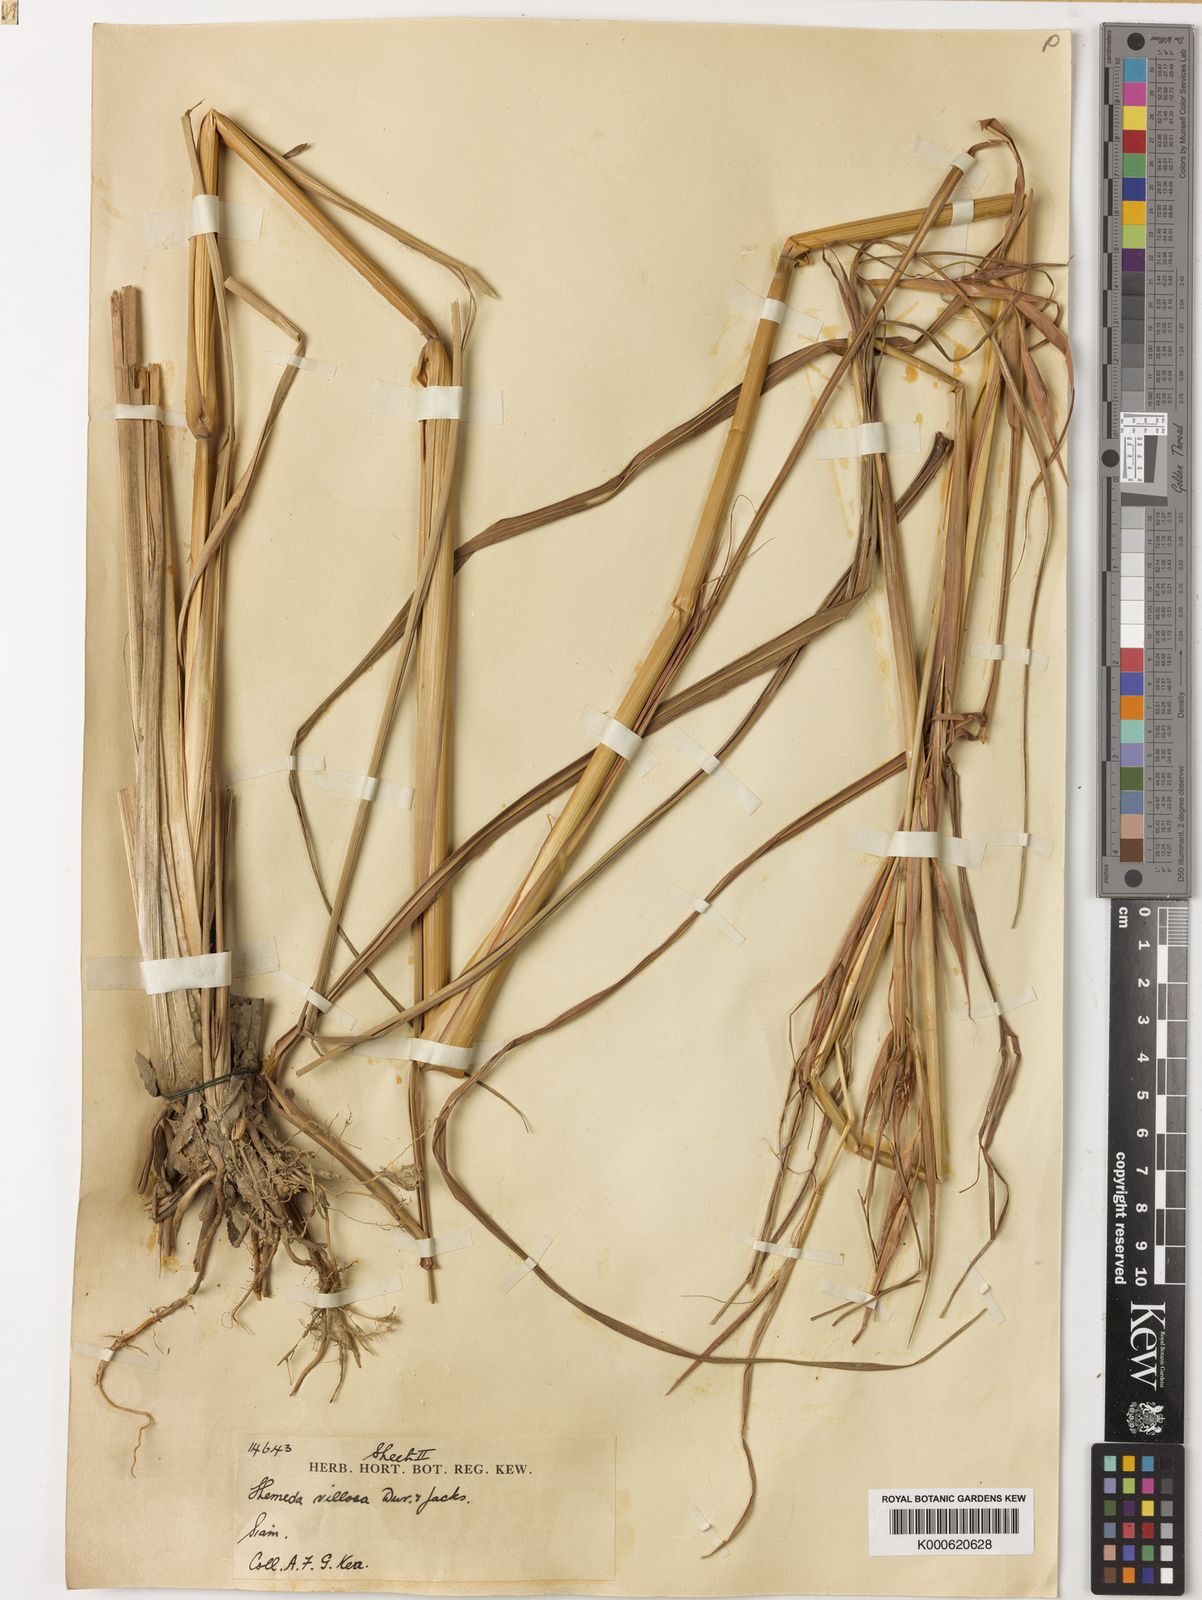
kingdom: Plantae
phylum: Tracheophyta
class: Liliopsida
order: Poales
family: Poaceae
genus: Themeda
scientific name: Themeda villosa
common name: Silky kangaroo grass
